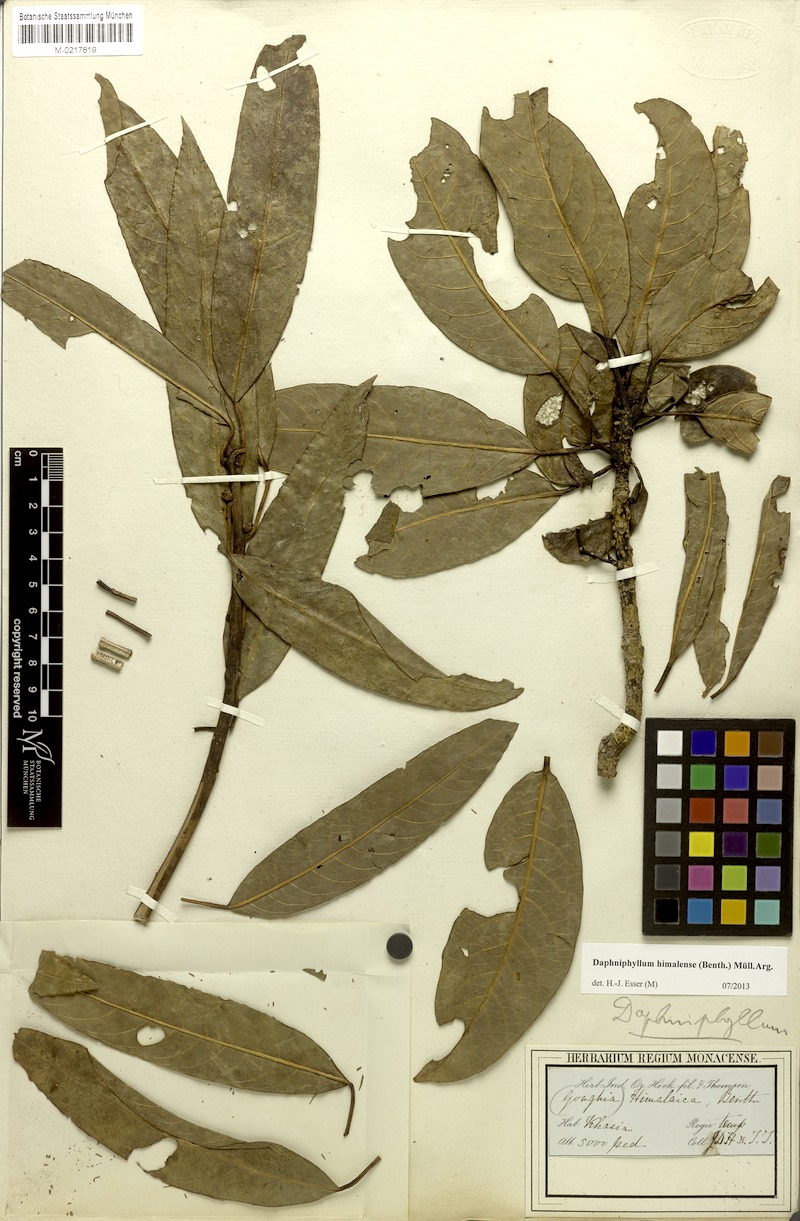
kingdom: Plantae
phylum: Tracheophyta
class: Magnoliopsida
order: Saxifragales
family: Daphniphyllaceae
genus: Daphniphyllum
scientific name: Daphniphyllum himalense
